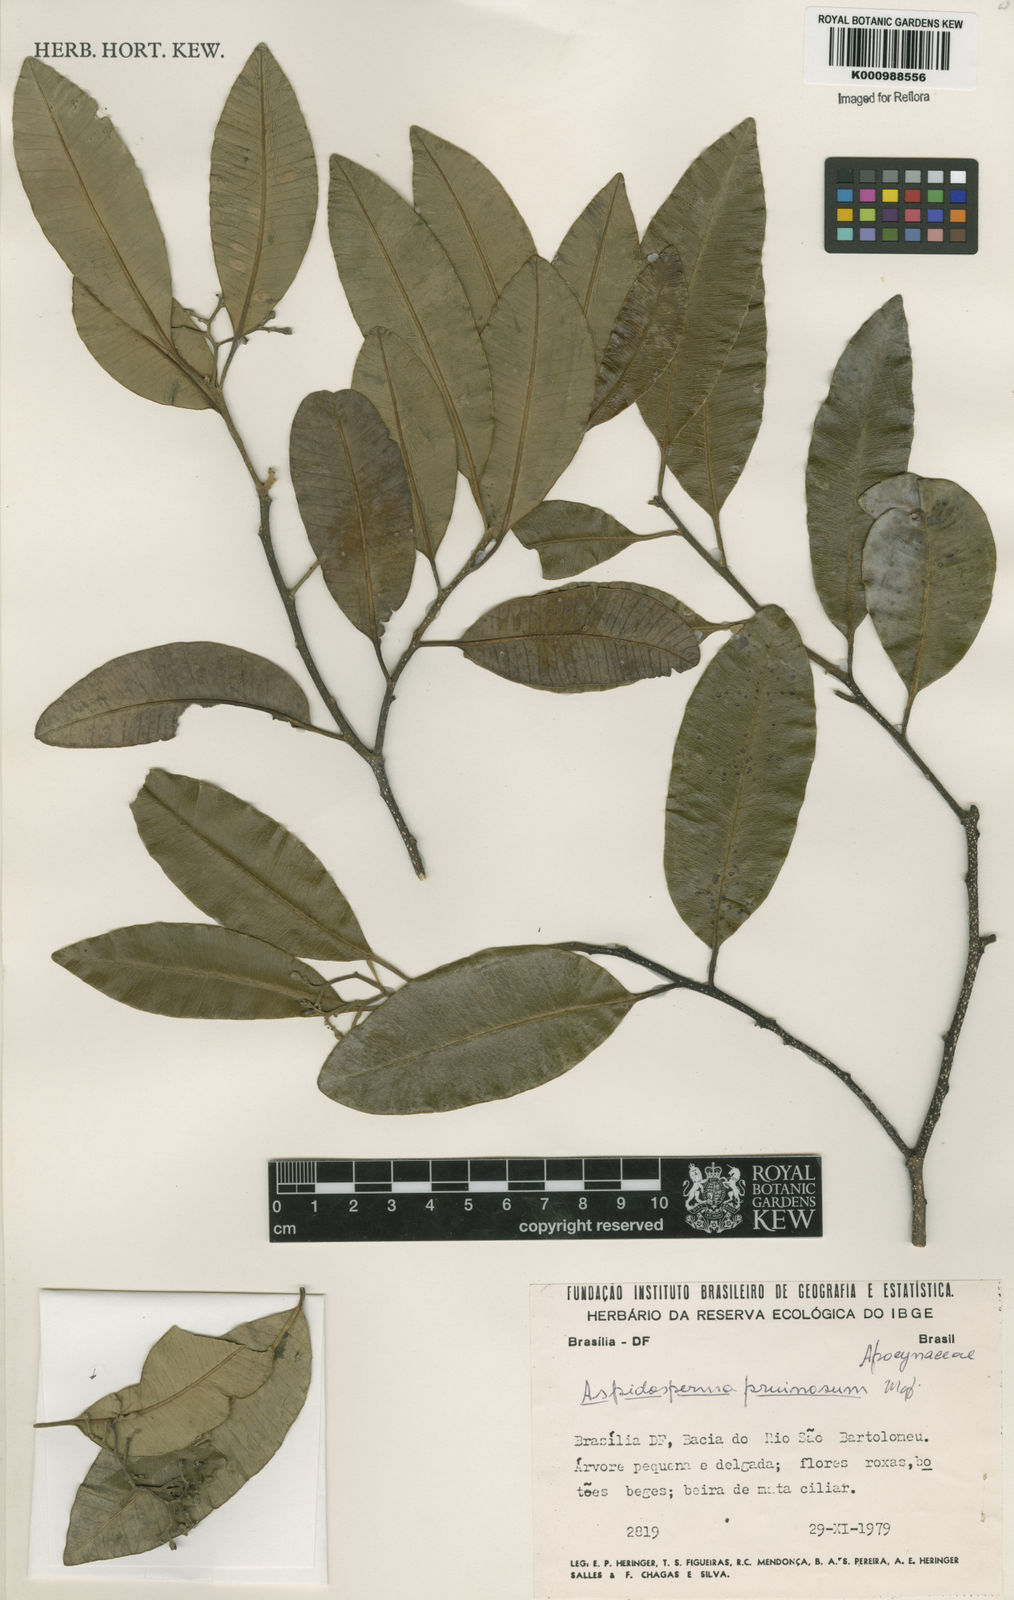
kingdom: Plantae
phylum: Tracheophyta
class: Magnoliopsida
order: Gentianales
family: Apocynaceae
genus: Aspidosperma
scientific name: Aspidosperma eburneum
